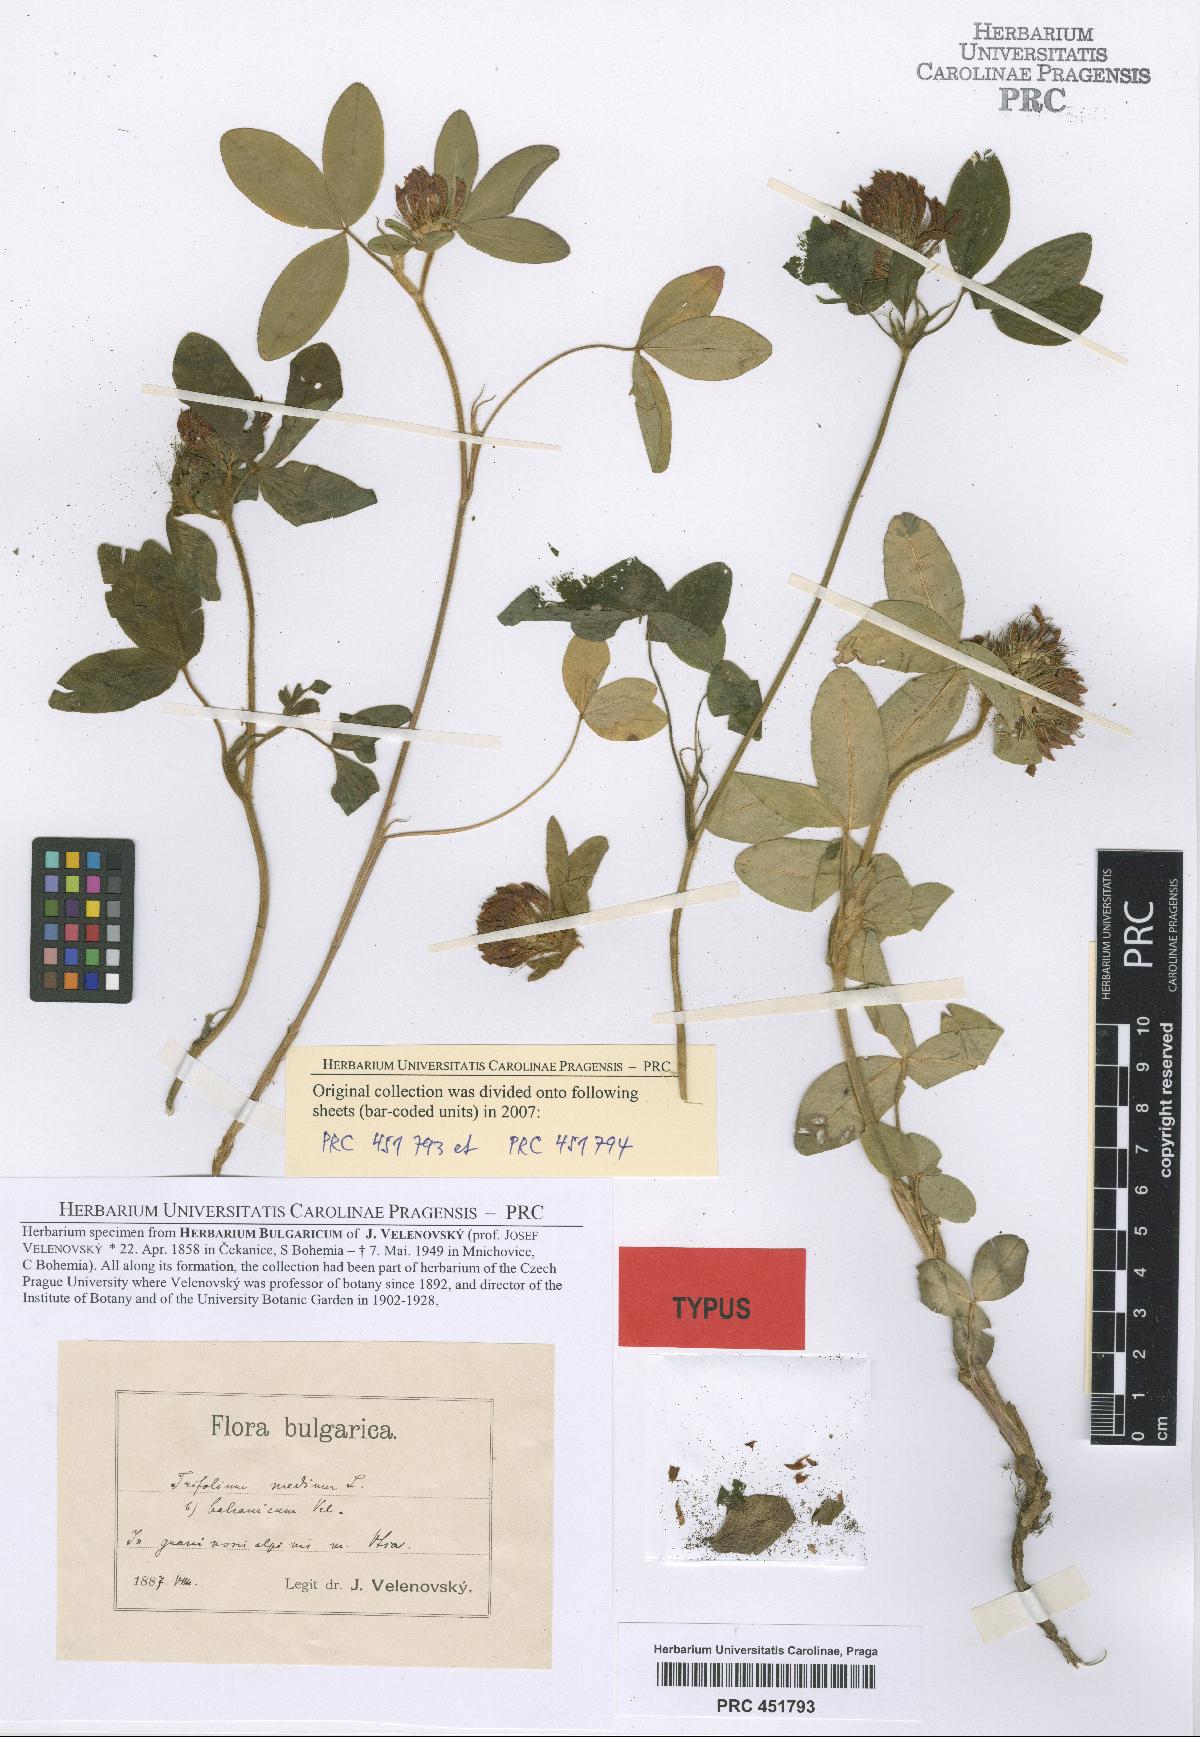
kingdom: Plantae
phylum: Tracheophyta
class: Magnoliopsida
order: Fabales
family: Fabaceae
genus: Trifolium
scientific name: Trifolium pseudomedium
